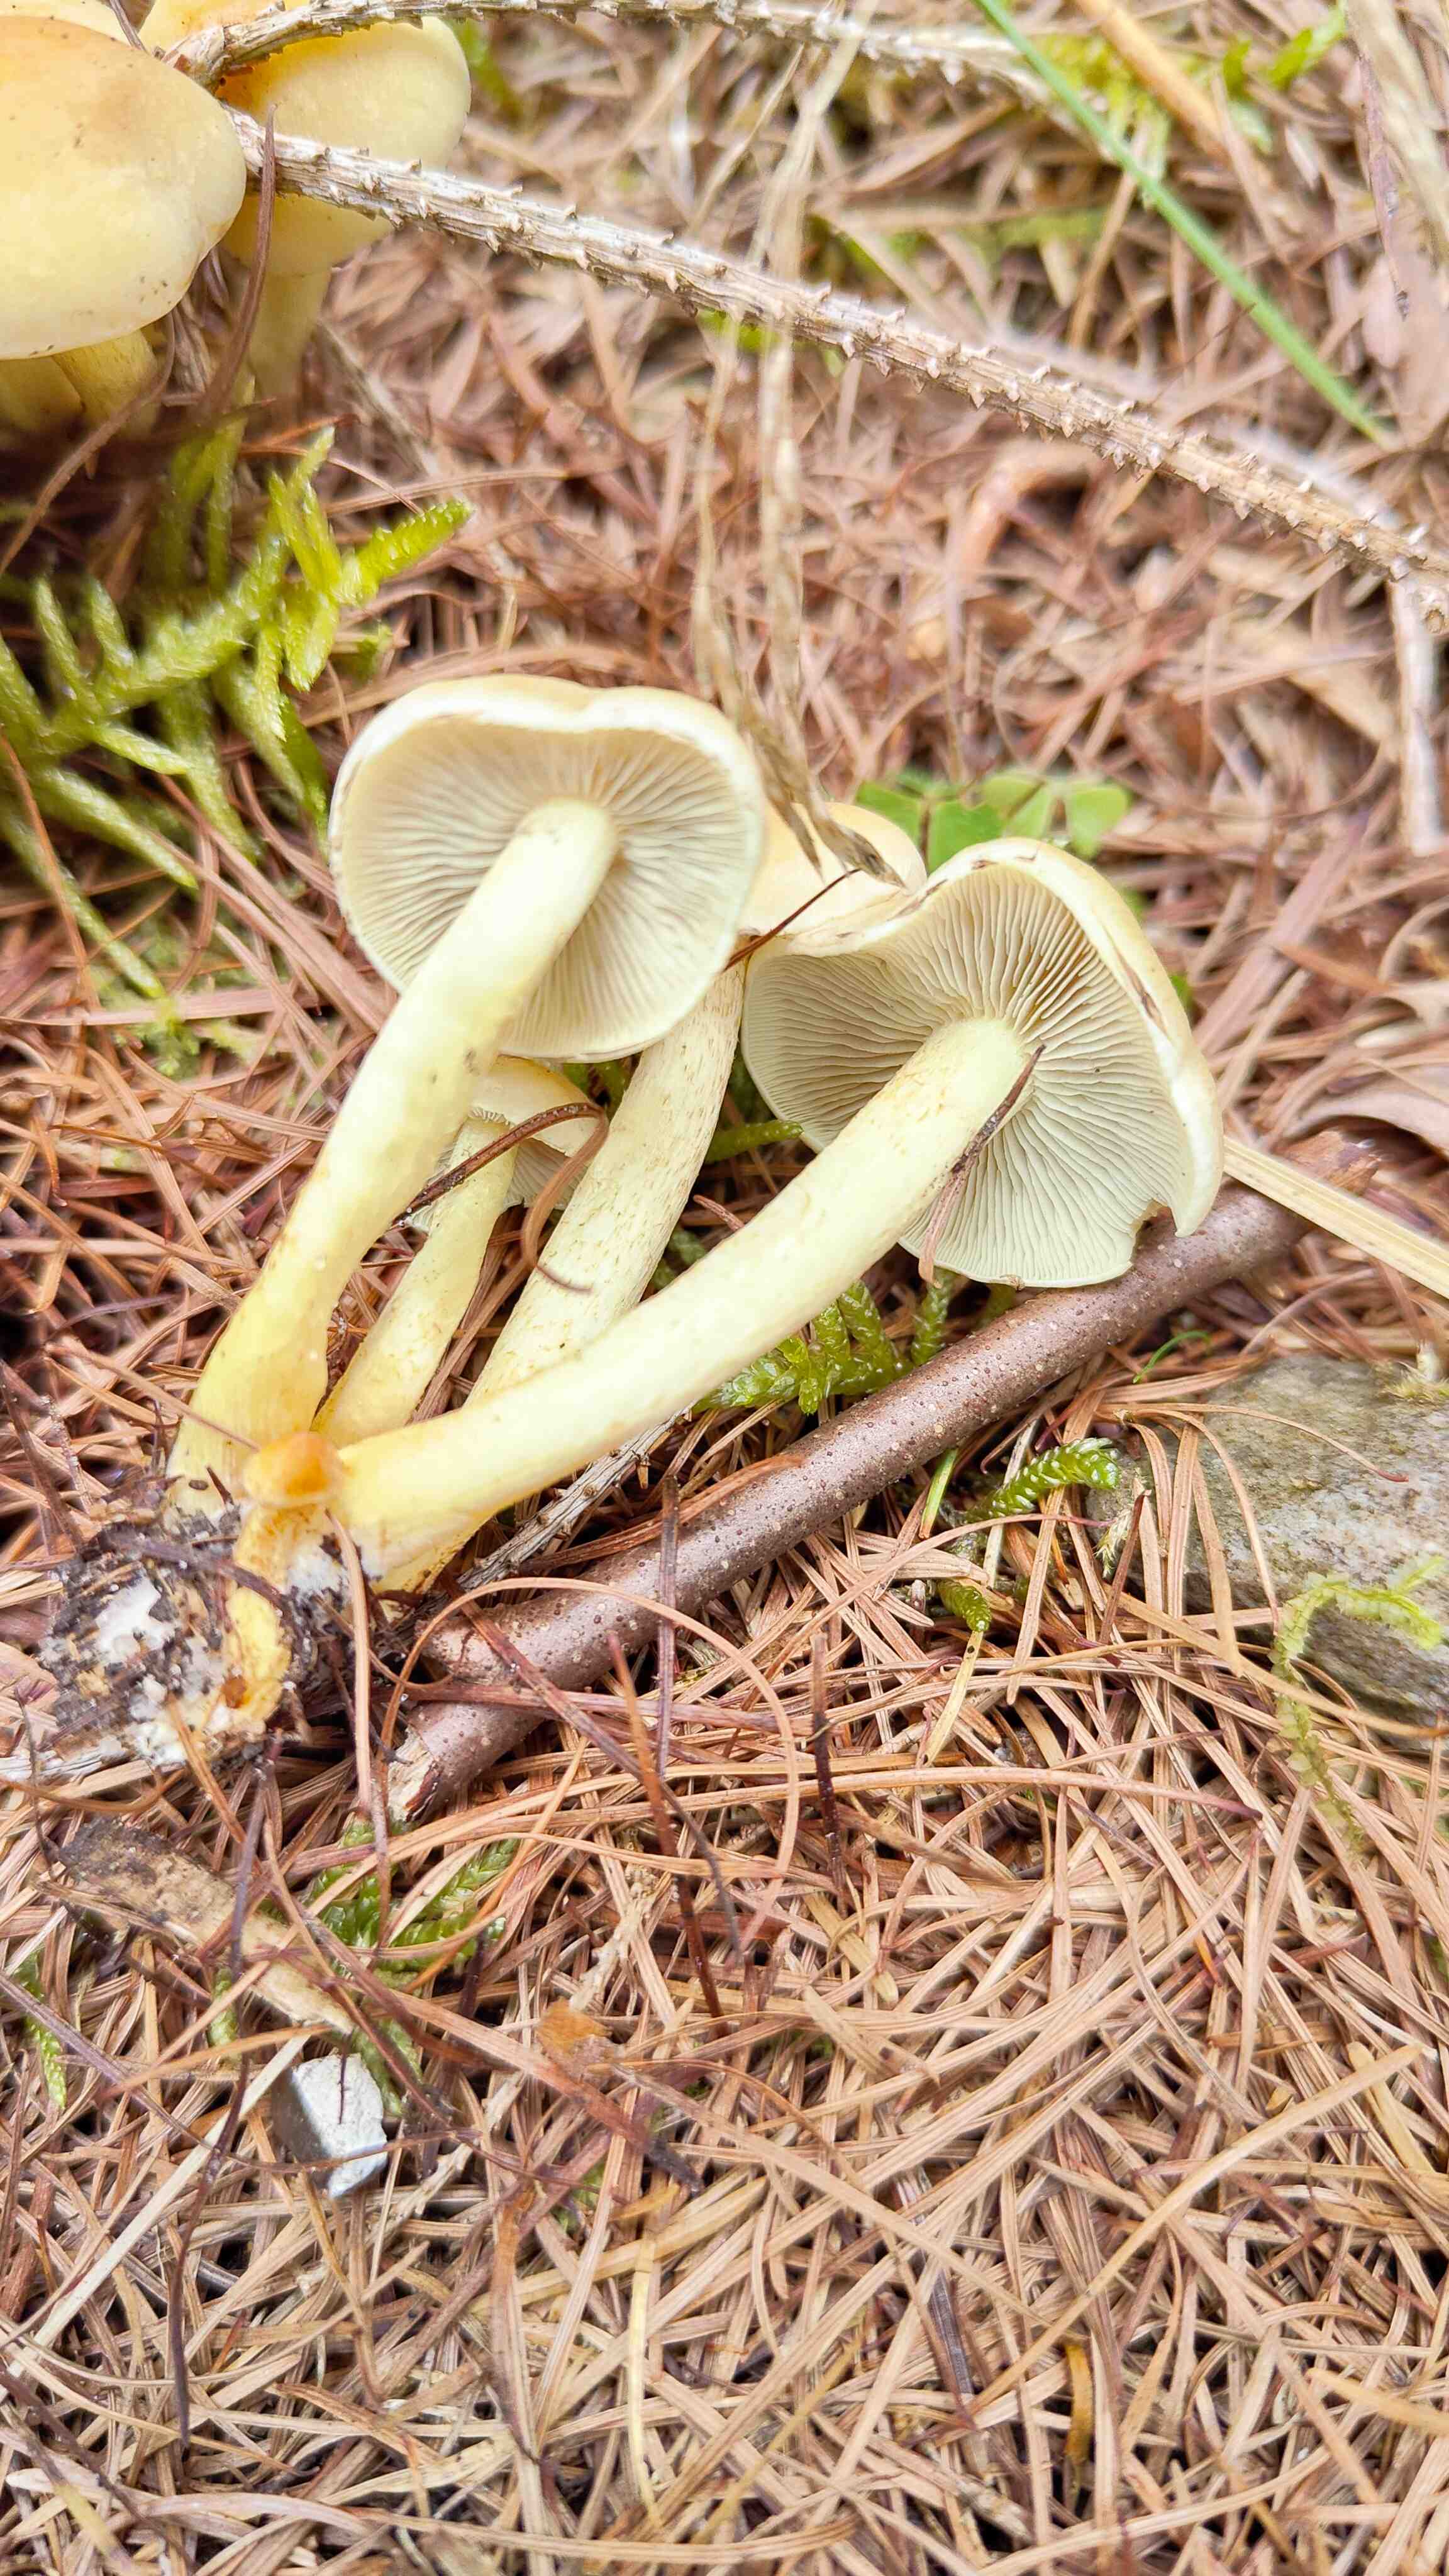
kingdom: Fungi
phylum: Basidiomycota
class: Agaricomycetes
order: Agaricales
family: Strophariaceae
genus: Hypholoma
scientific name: Hypholoma fasciculare
